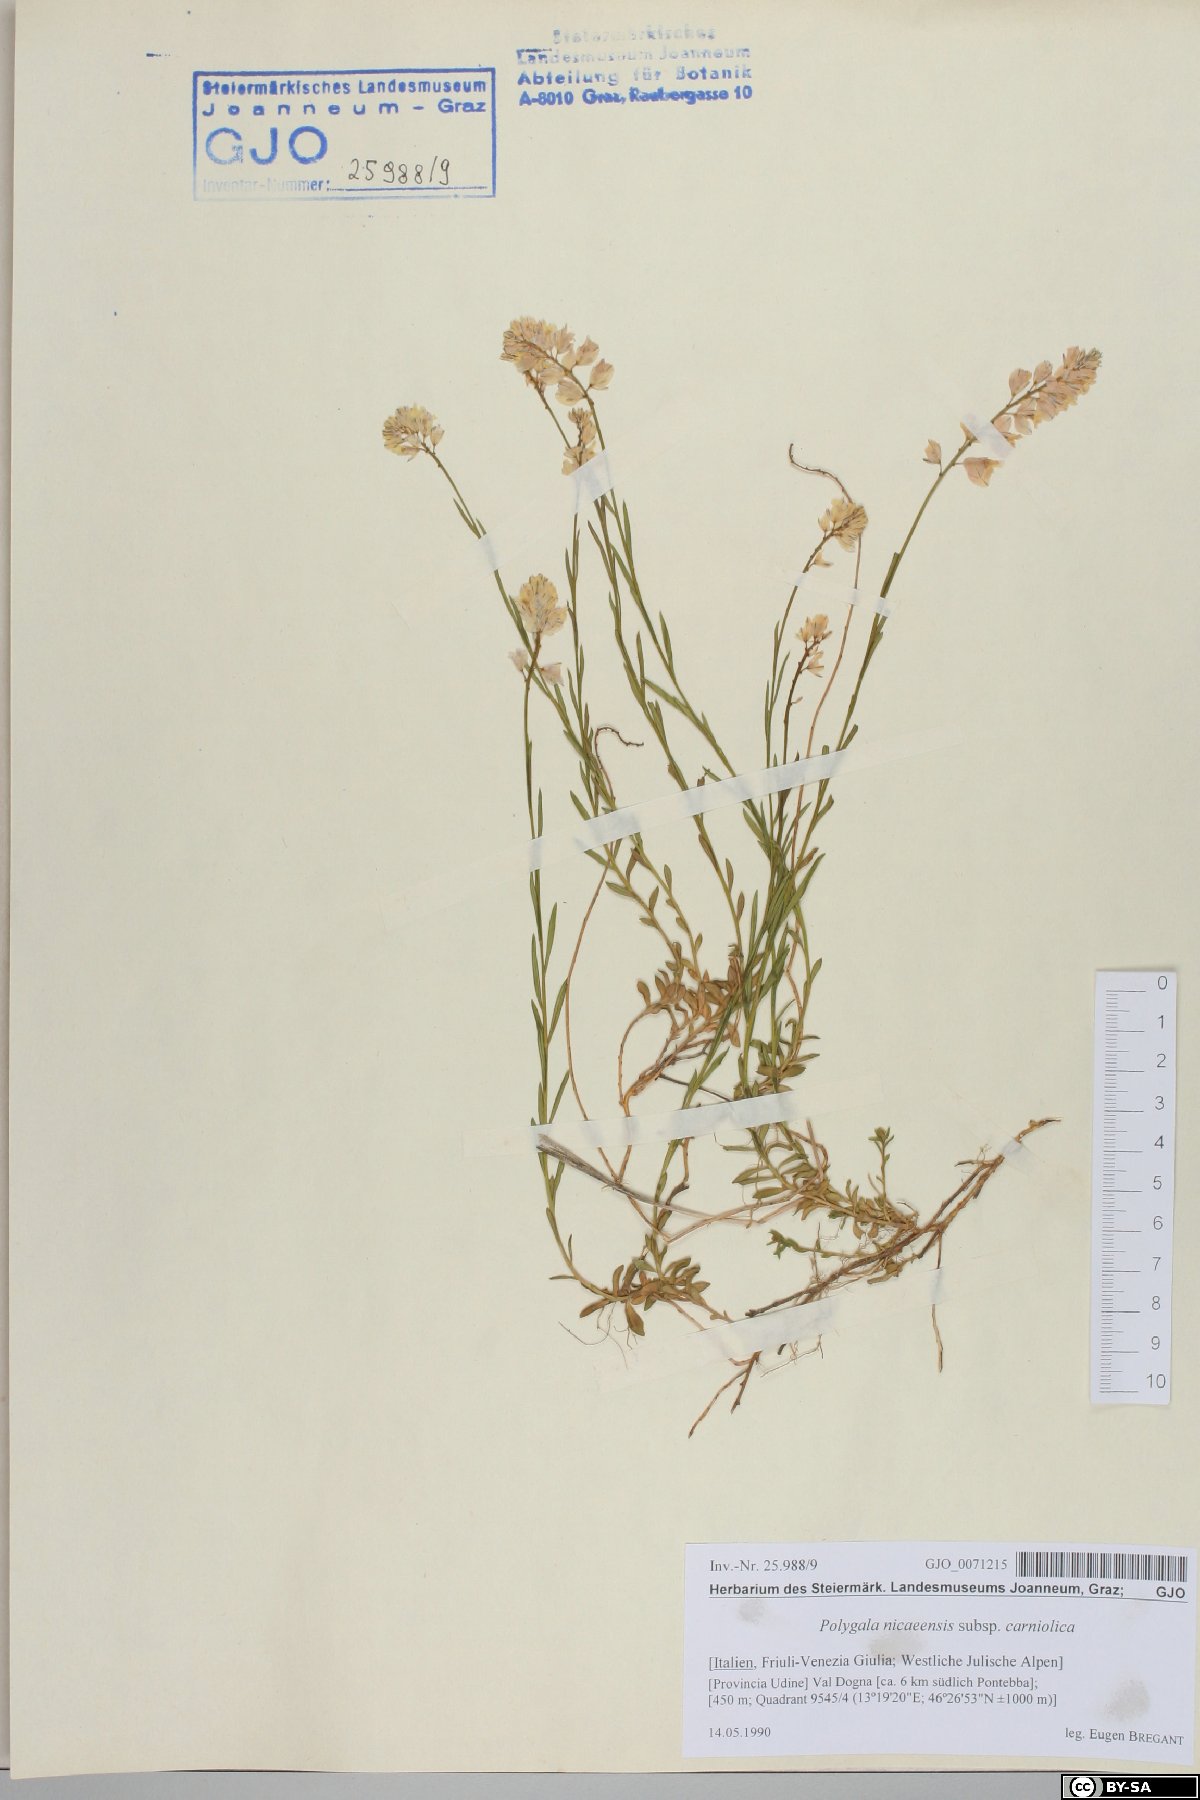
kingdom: Plantae
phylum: Tracheophyta
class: Magnoliopsida
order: Fabales
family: Polygalaceae
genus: Polygala
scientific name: Polygala
